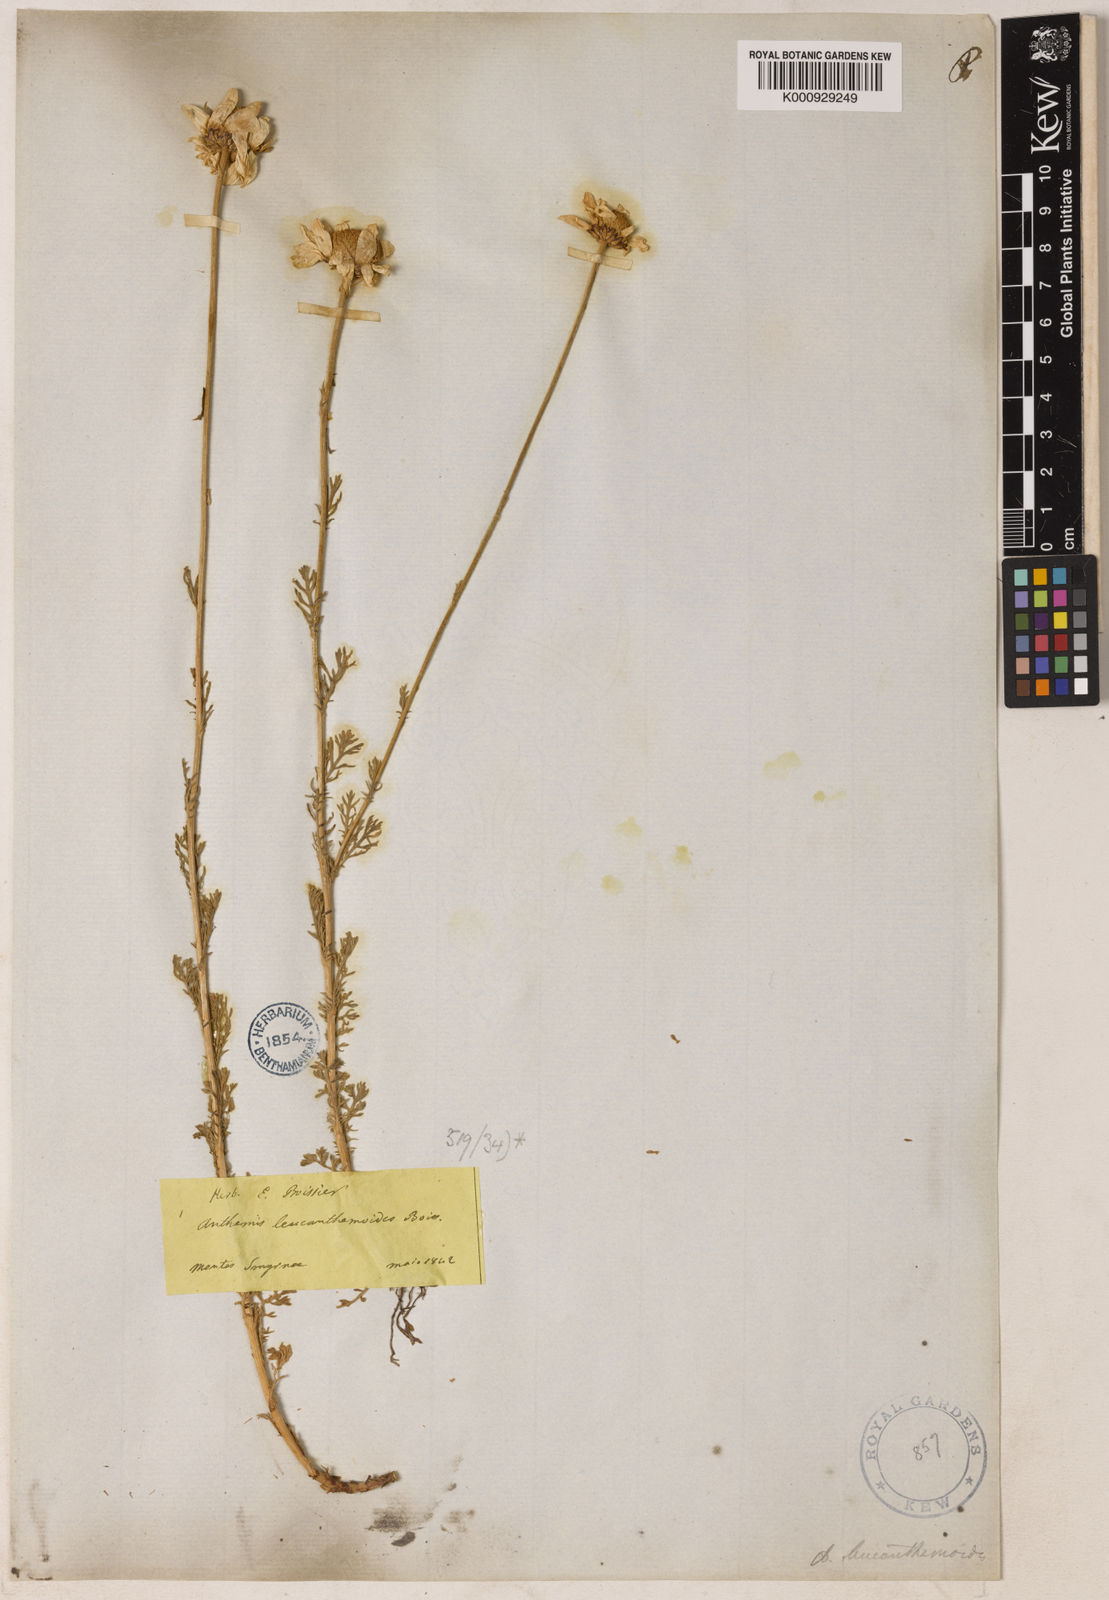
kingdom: Plantae
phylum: Tracheophyta
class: Magnoliopsida
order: Asterales
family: Asteraceae
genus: Anthemis
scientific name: Anthemis cretica
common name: Mountain dog-daisy
